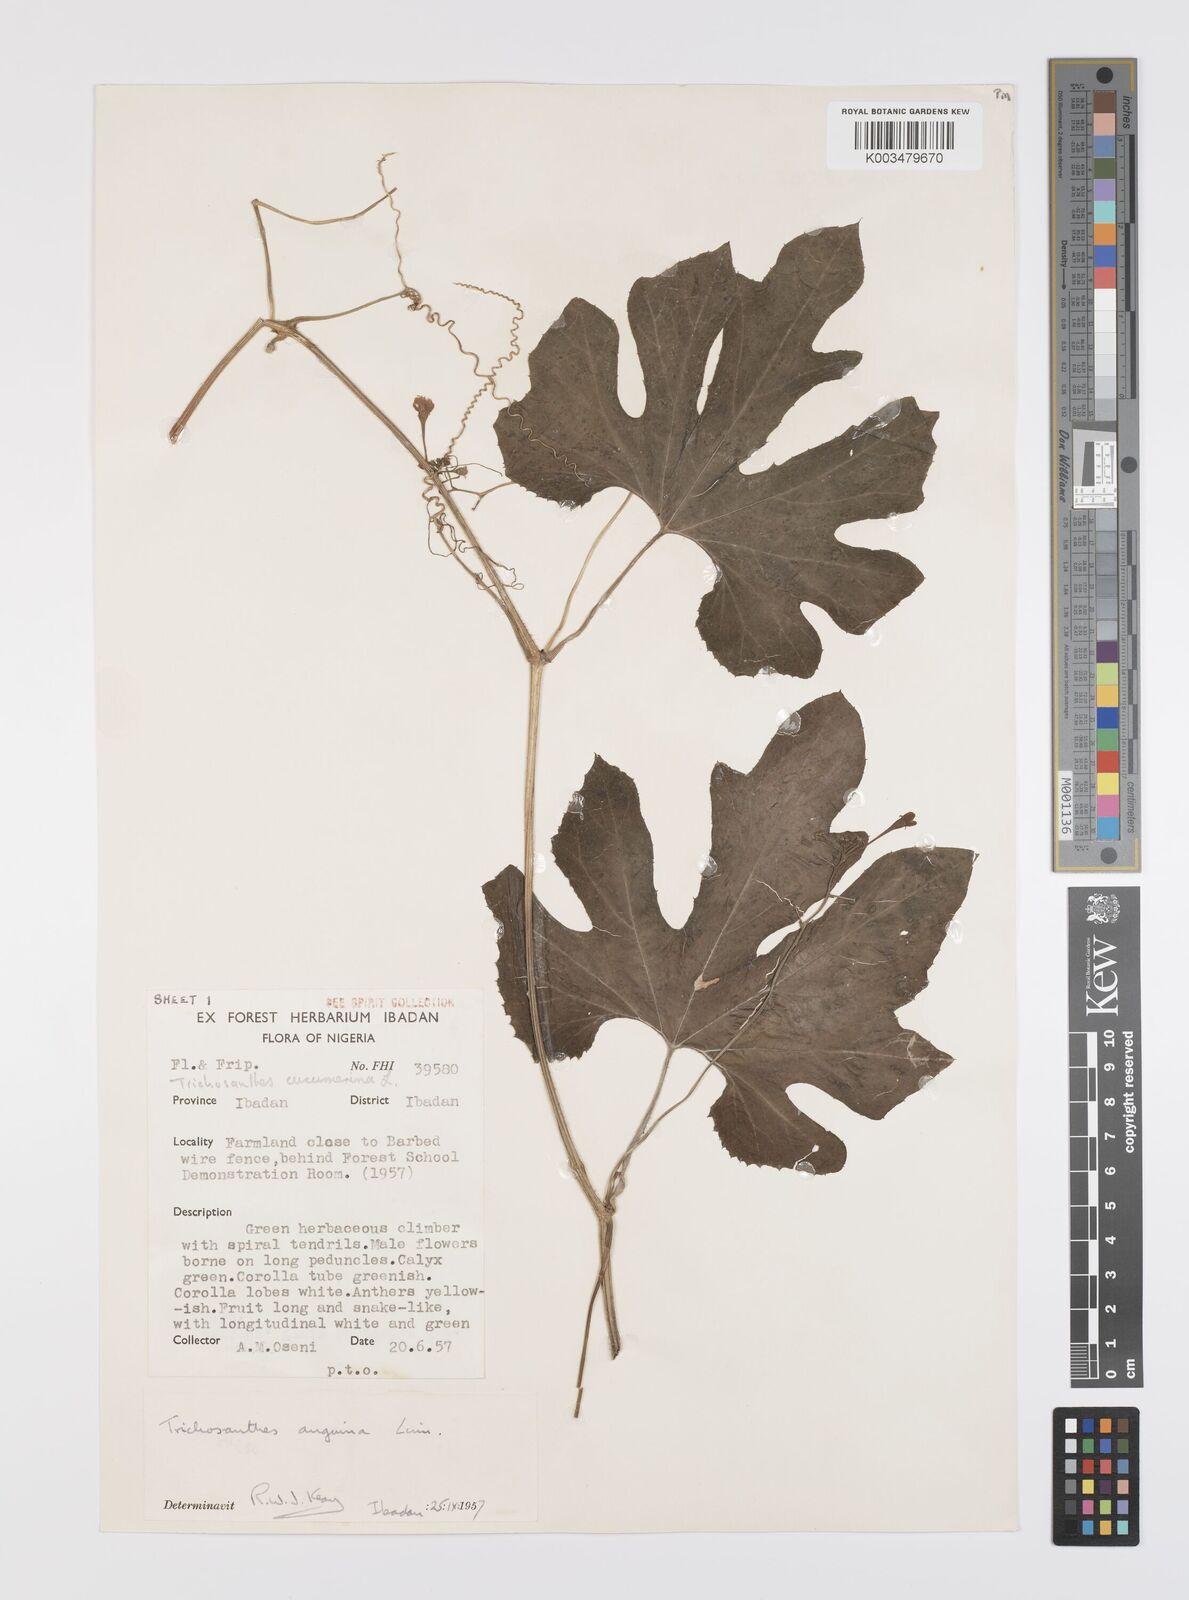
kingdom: Plantae
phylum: Tracheophyta
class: Magnoliopsida
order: Cucurbitales
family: Cucurbitaceae
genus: Trichosanthes
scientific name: Trichosanthes cucumerina
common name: Snakegourd
